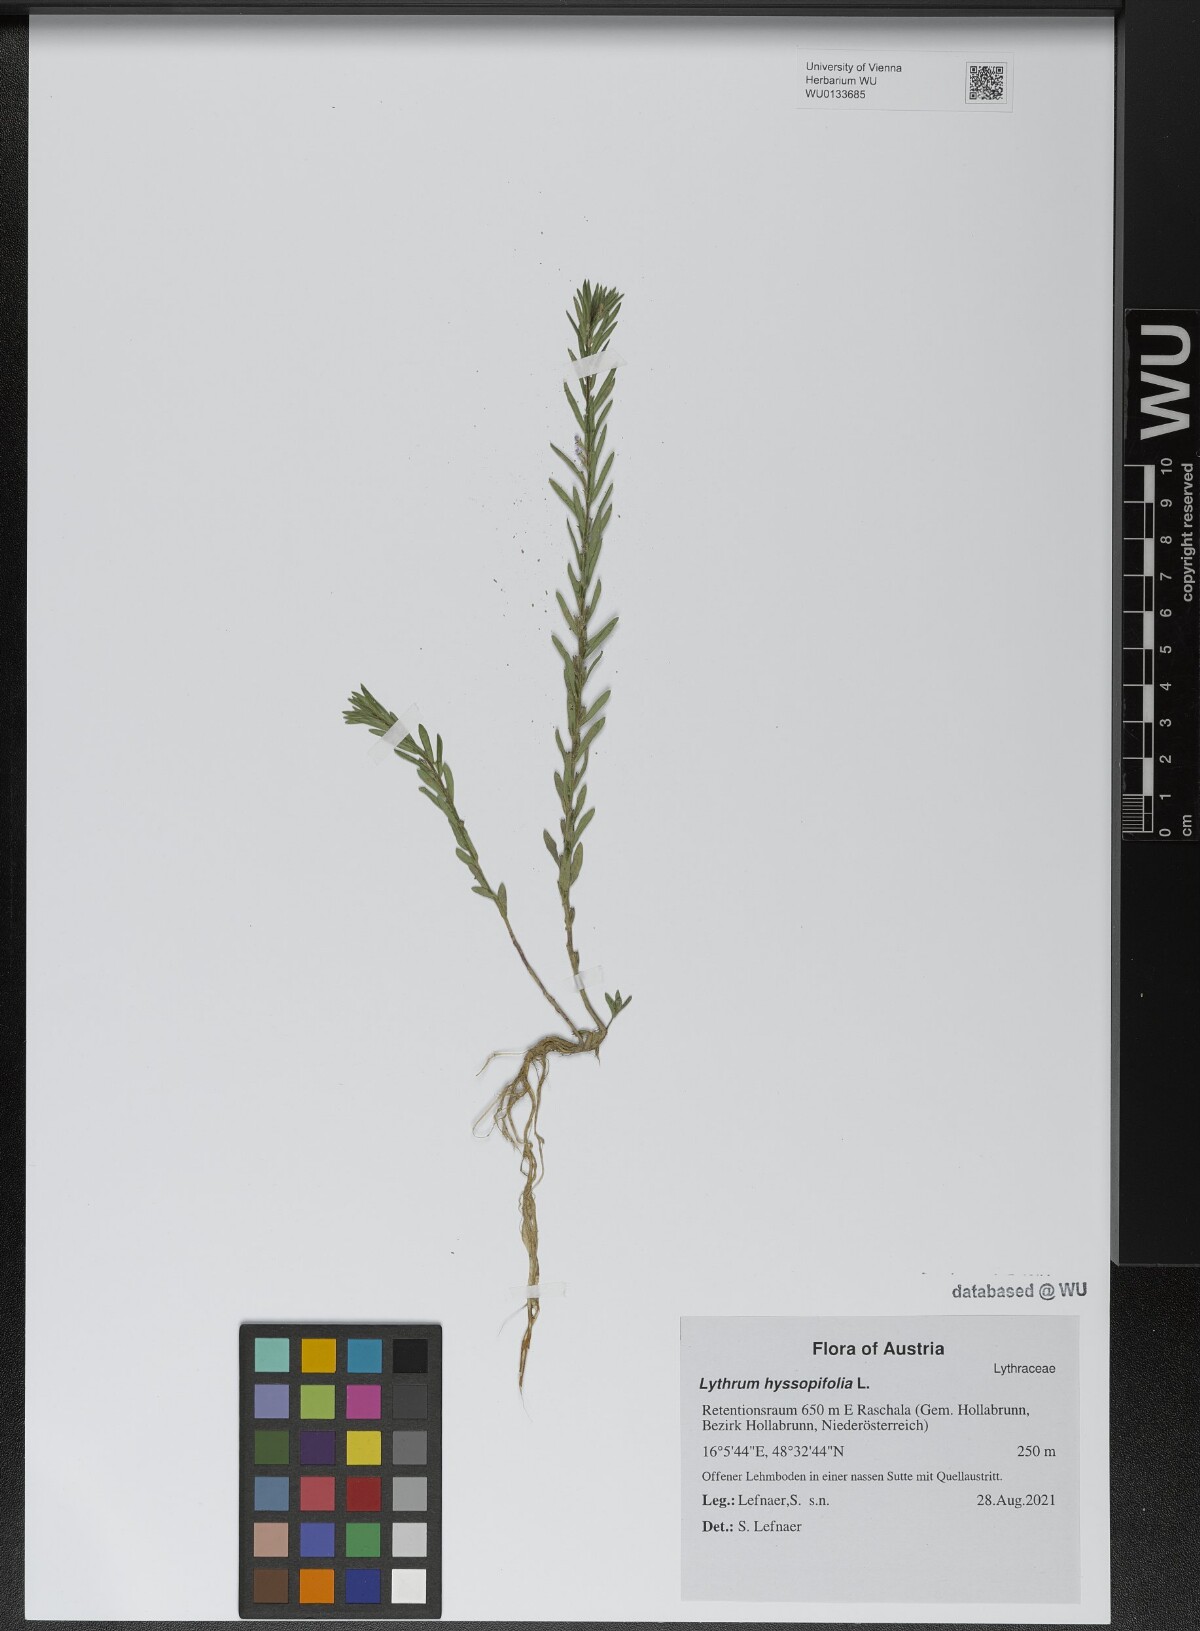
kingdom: Plantae
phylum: Tracheophyta
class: Magnoliopsida
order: Myrtales
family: Lythraceae
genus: Lythrum
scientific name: Lythrum hyssopifolia
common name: Grass-poly
